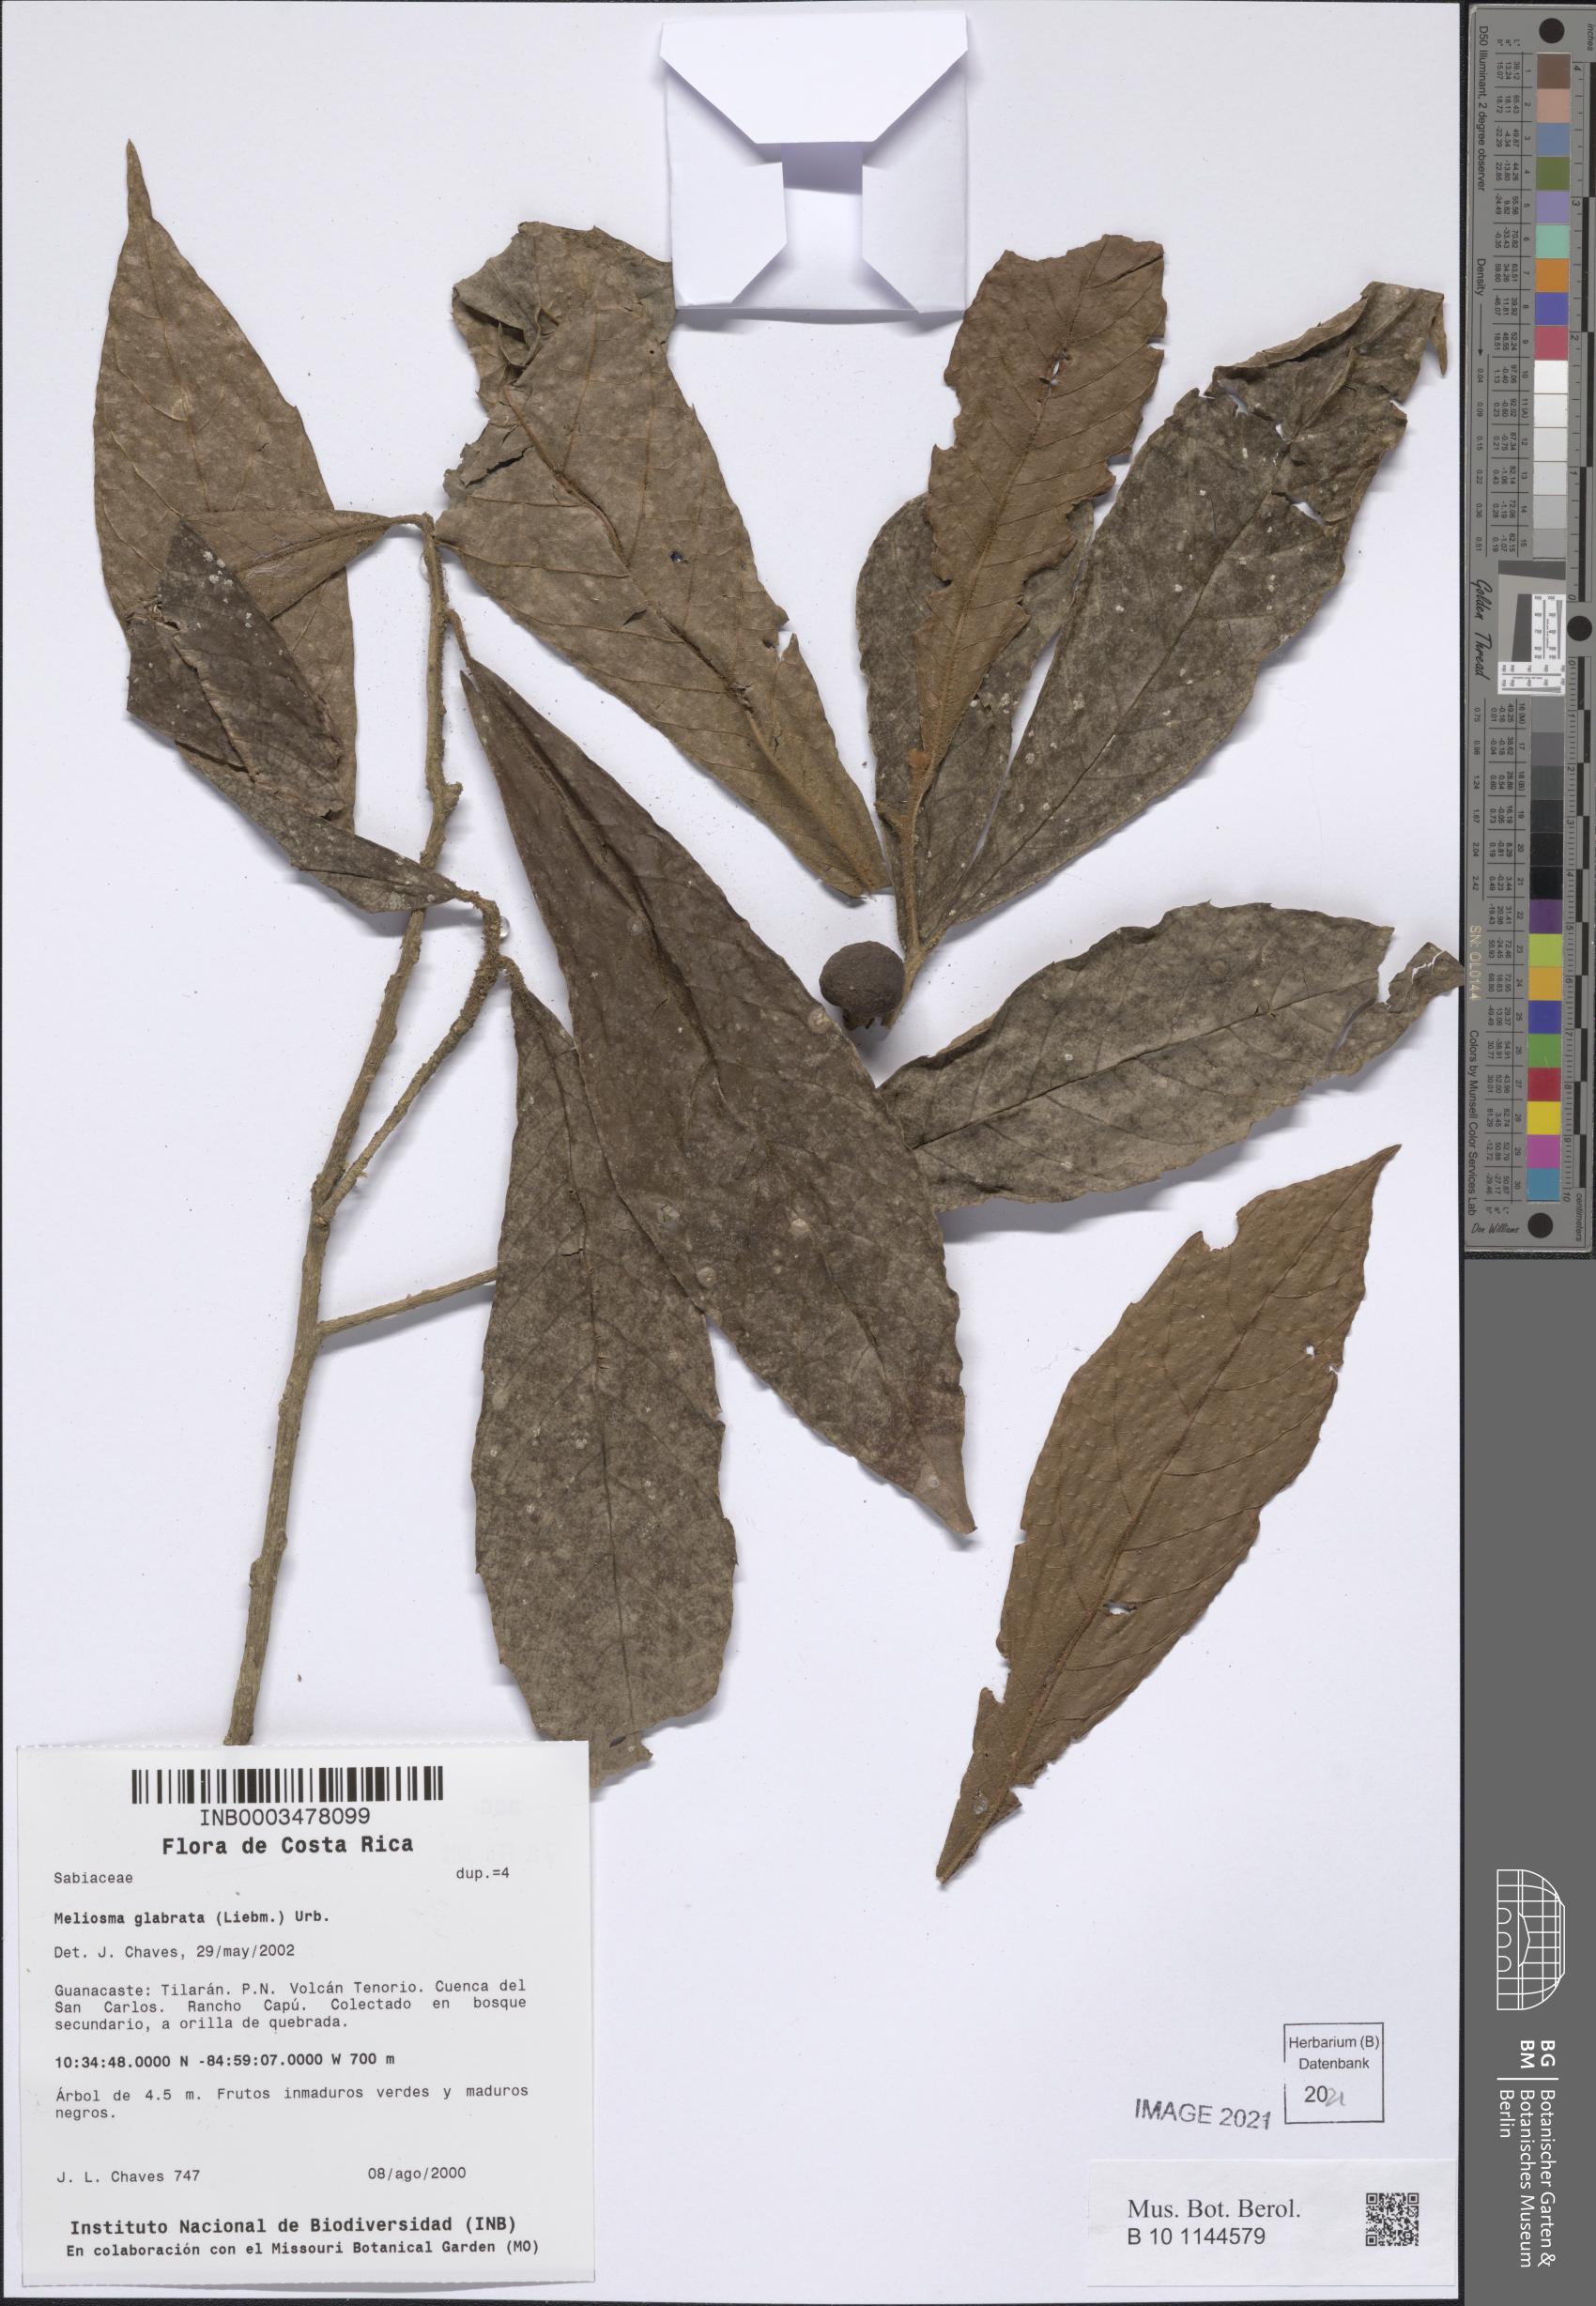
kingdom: Plantae
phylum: Tracheophyta
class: Magnoliopsida
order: Proteales
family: Sabiaceae
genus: Meliosma
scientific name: Meliosma brenesii
